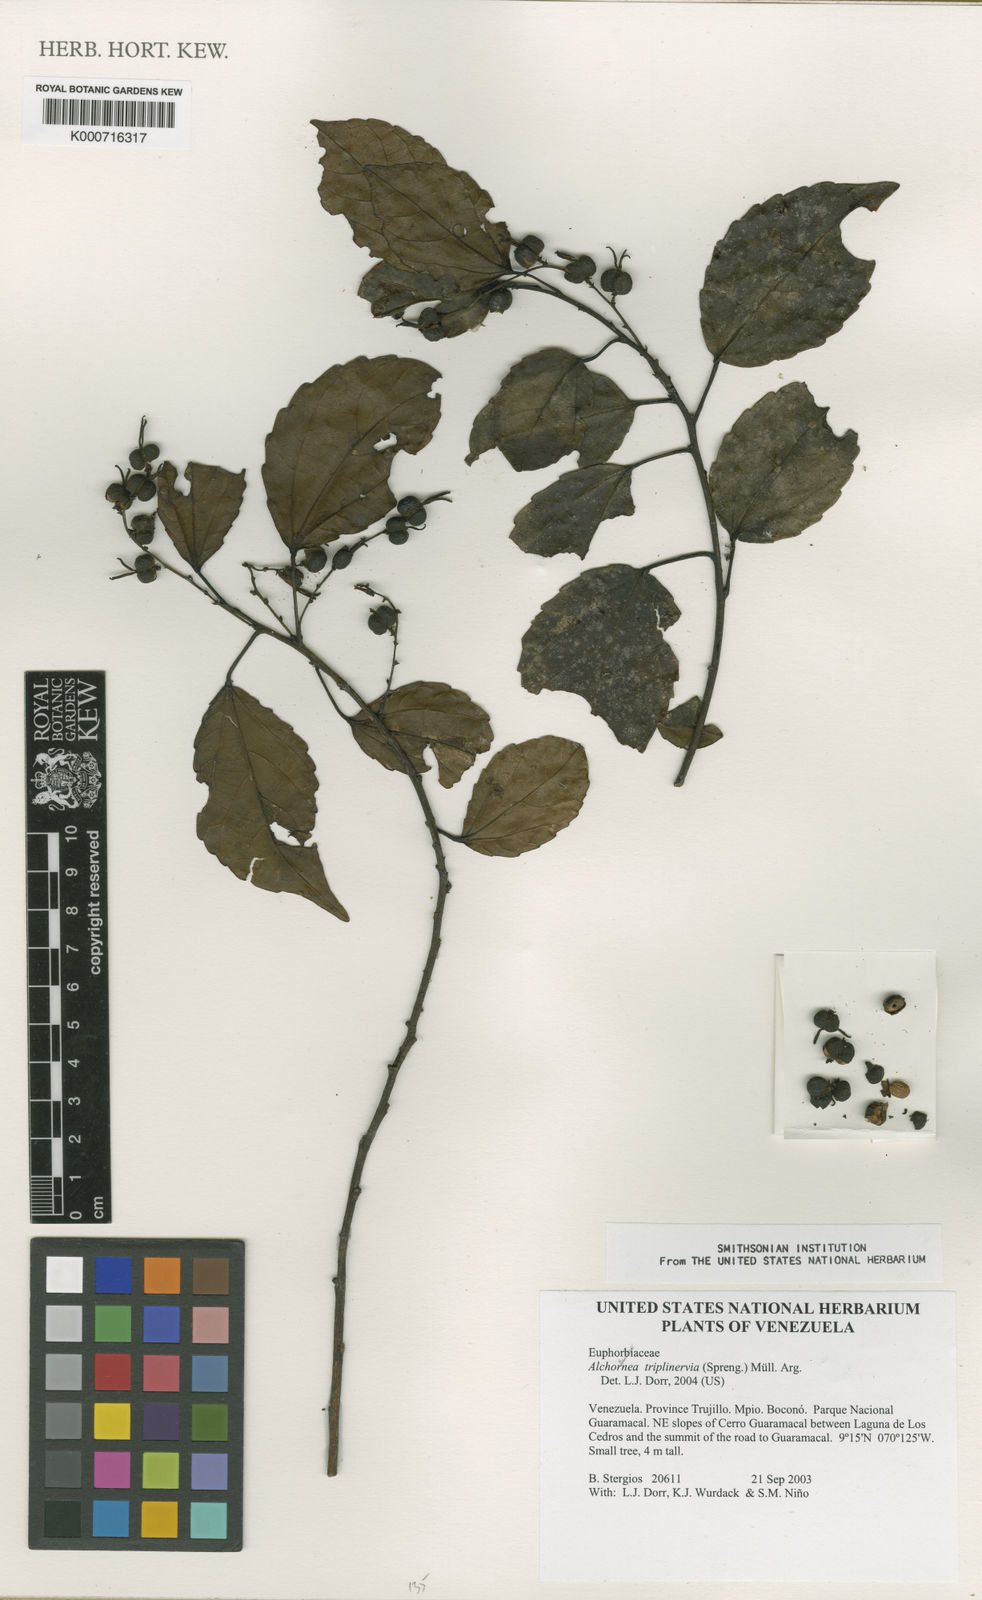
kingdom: Plantae
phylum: Tracheophyta
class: Magnoliopsida
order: Malpighiales
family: Euphorbiaceae
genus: Alchornea
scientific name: Alchornea
